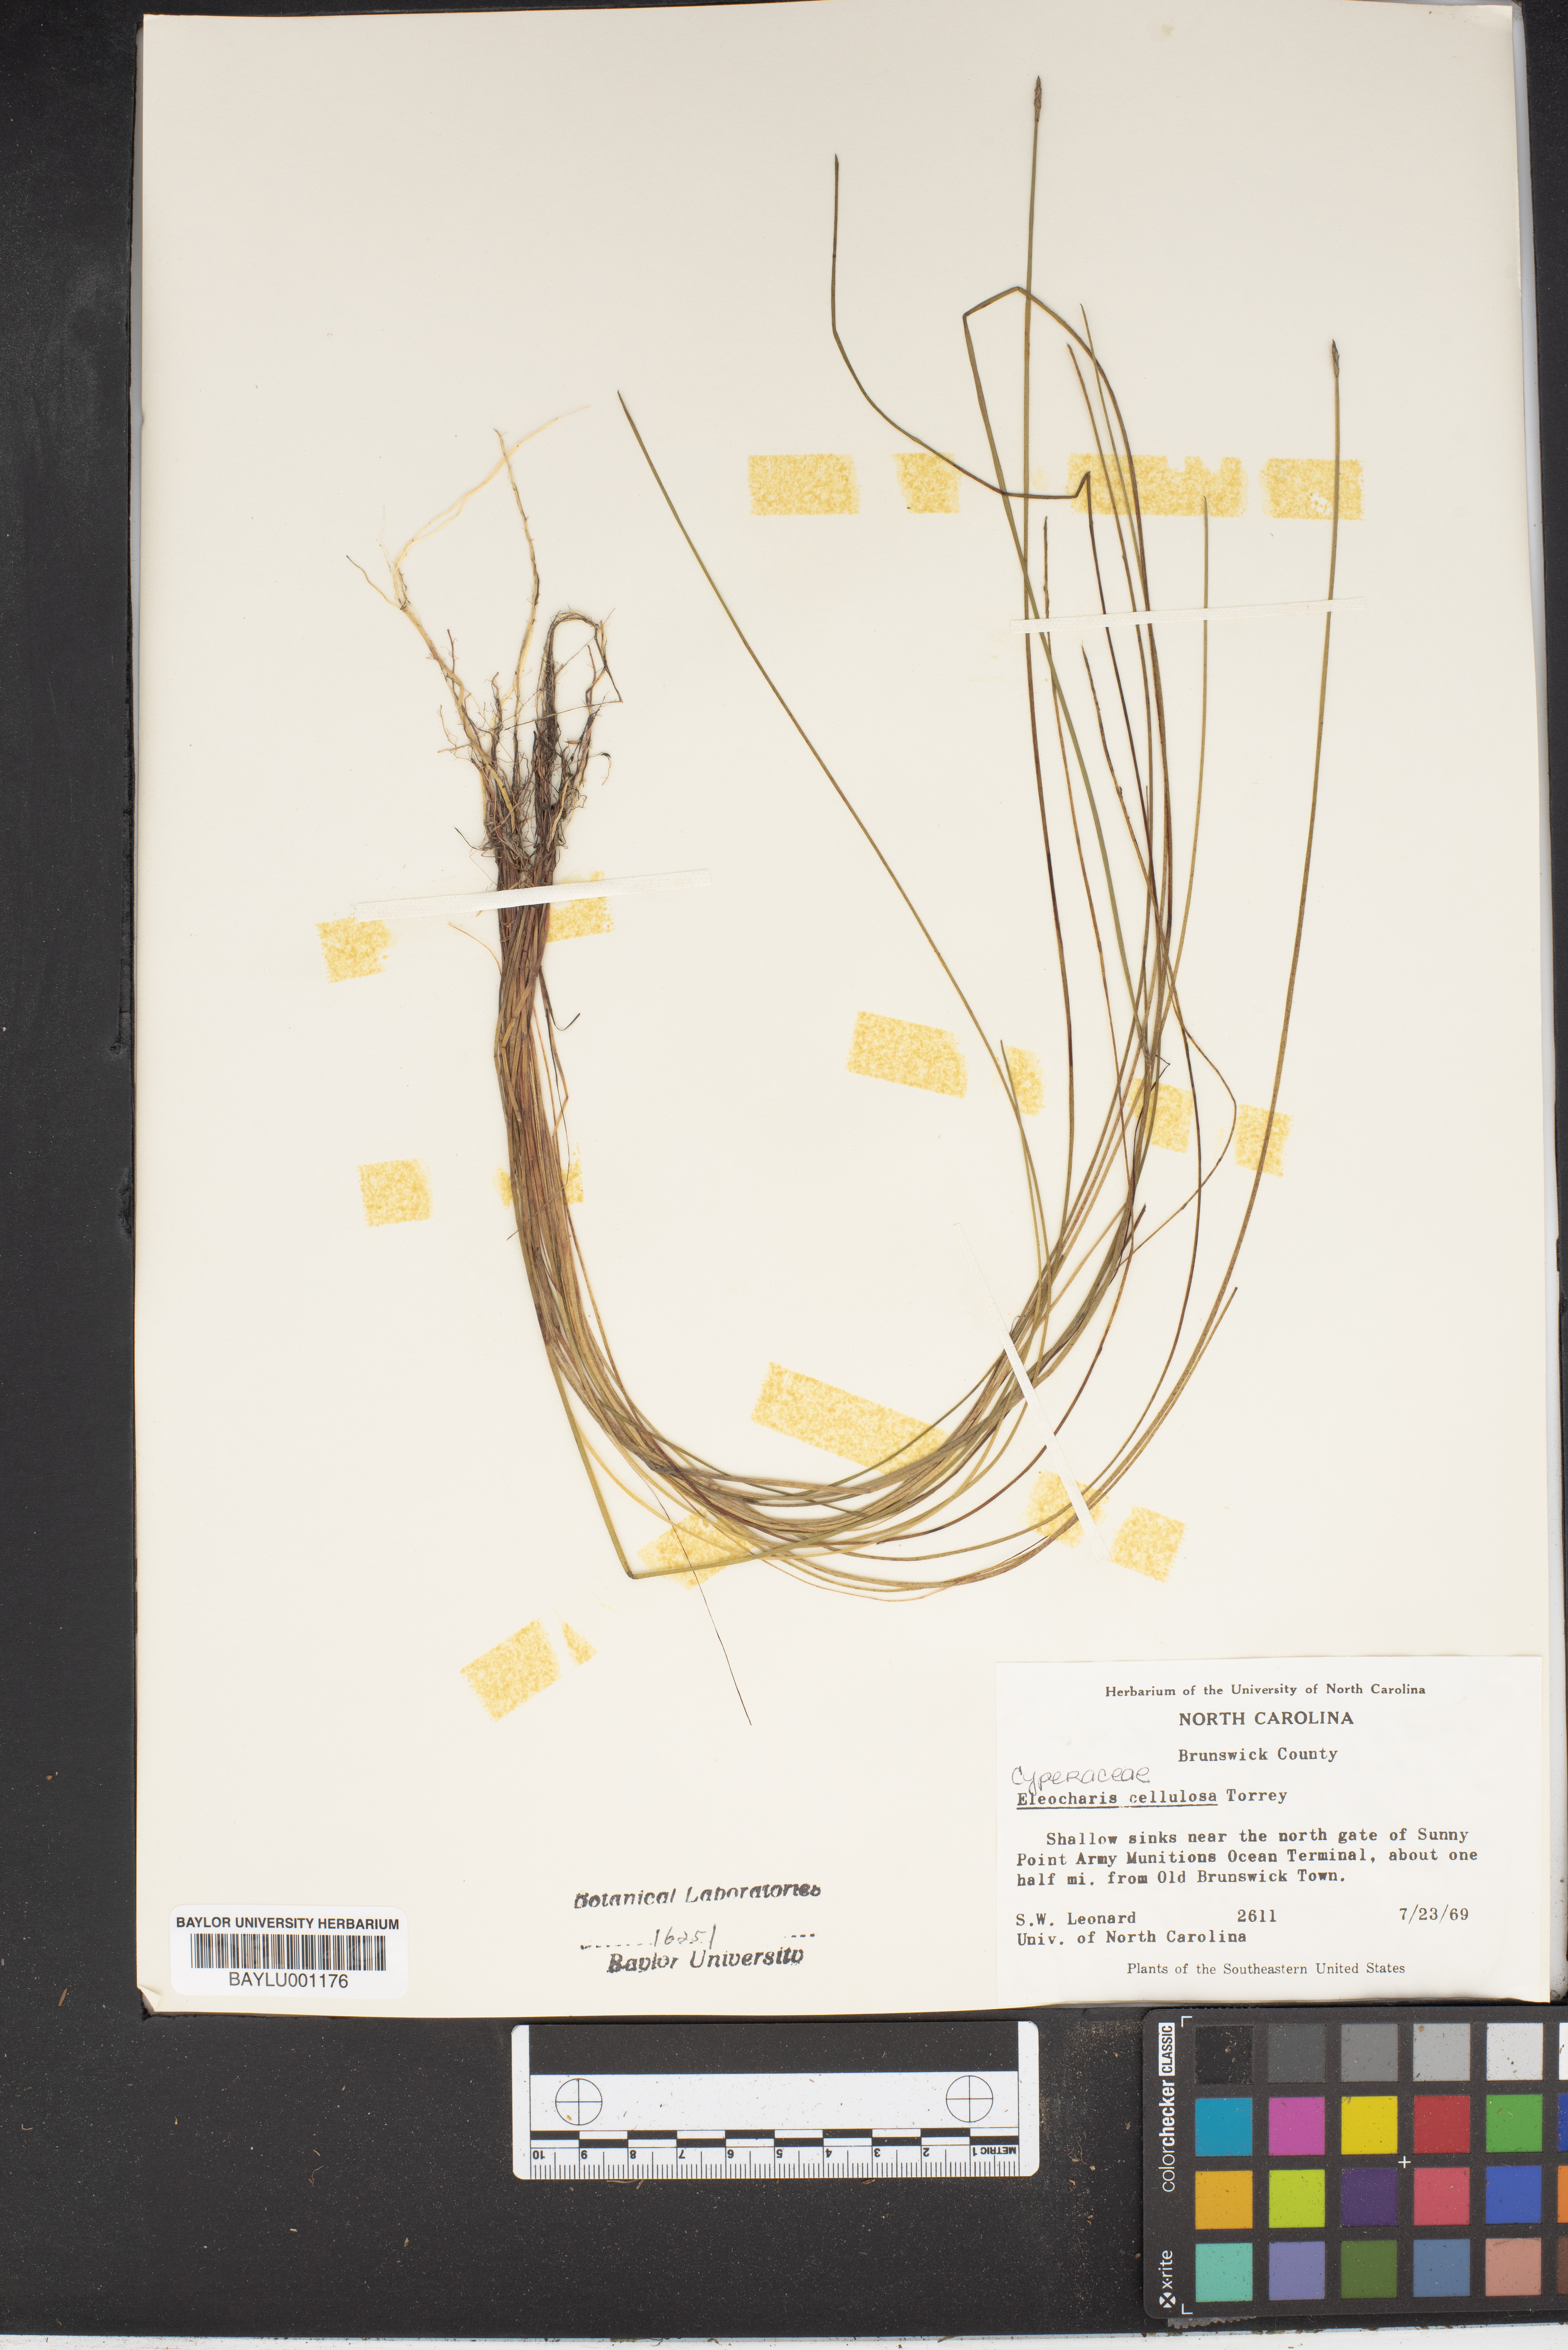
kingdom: Plantae
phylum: Tracheophyta
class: Liliopsida
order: Poales
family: Cyperaceae
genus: Eleocharis
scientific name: Eleocharis cellulosa
